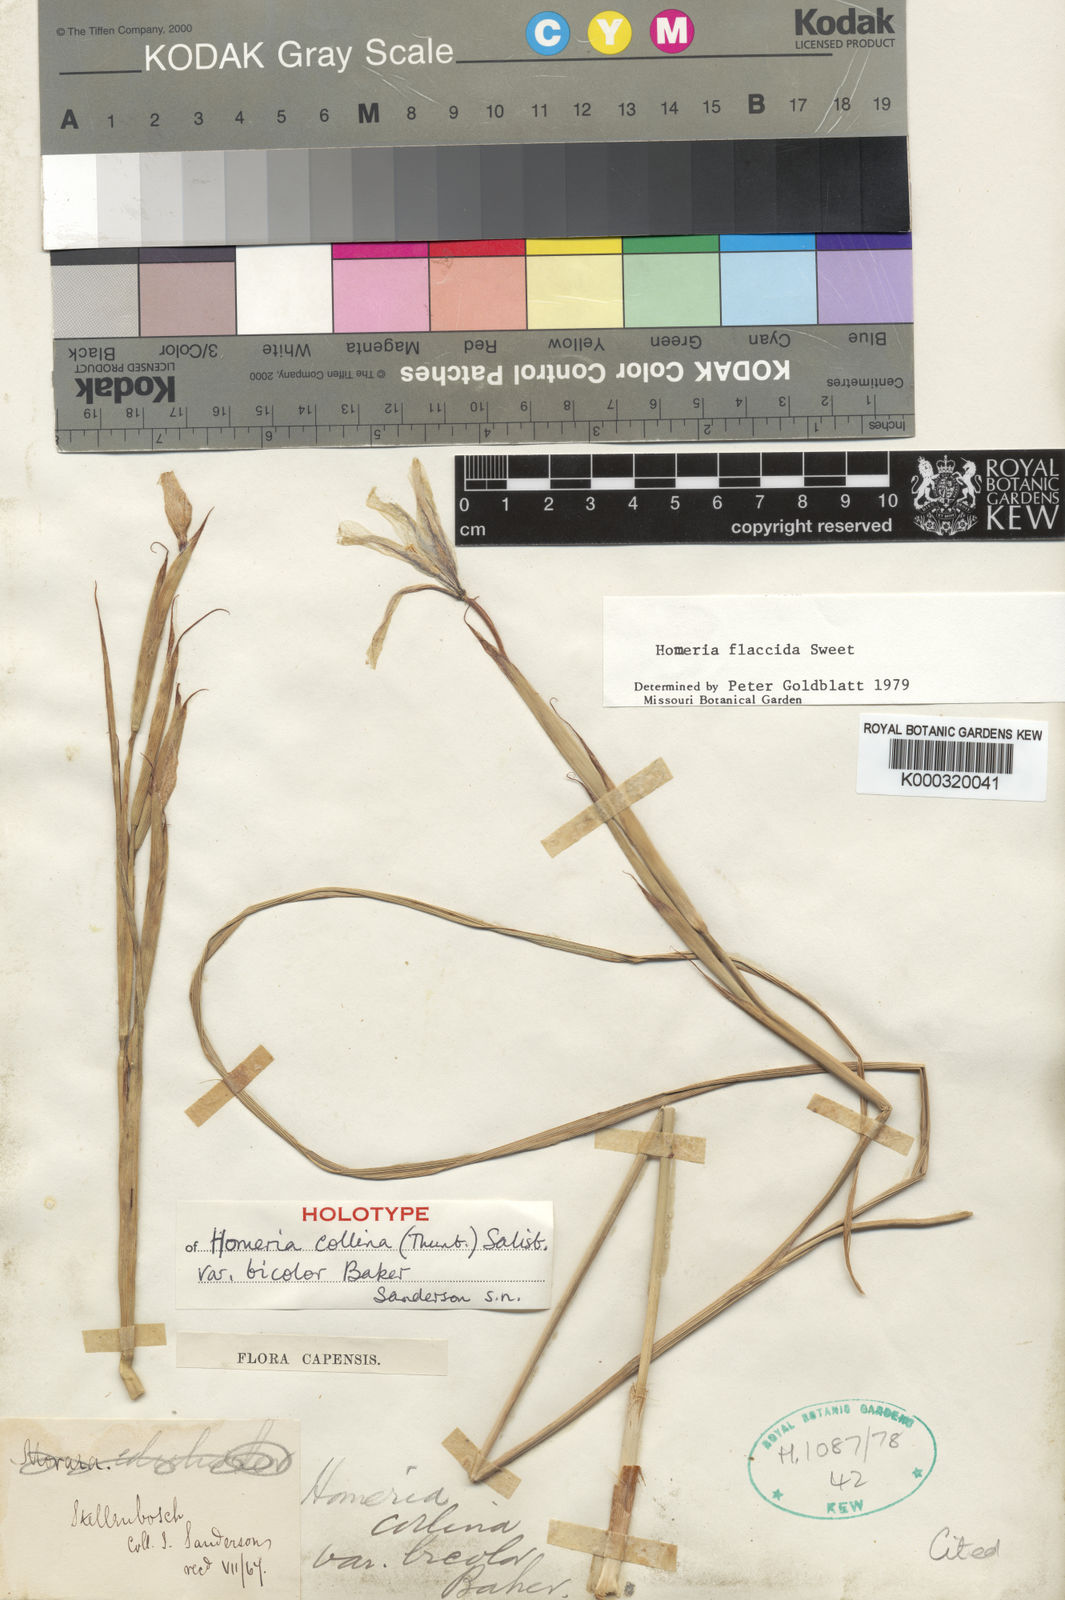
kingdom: Plantae
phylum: Tracheophyta
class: Liliopsida
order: Asparagales
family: Iridaceae
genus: Moraea
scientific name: Moraea flaccida
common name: One-leaf cape-tulip
